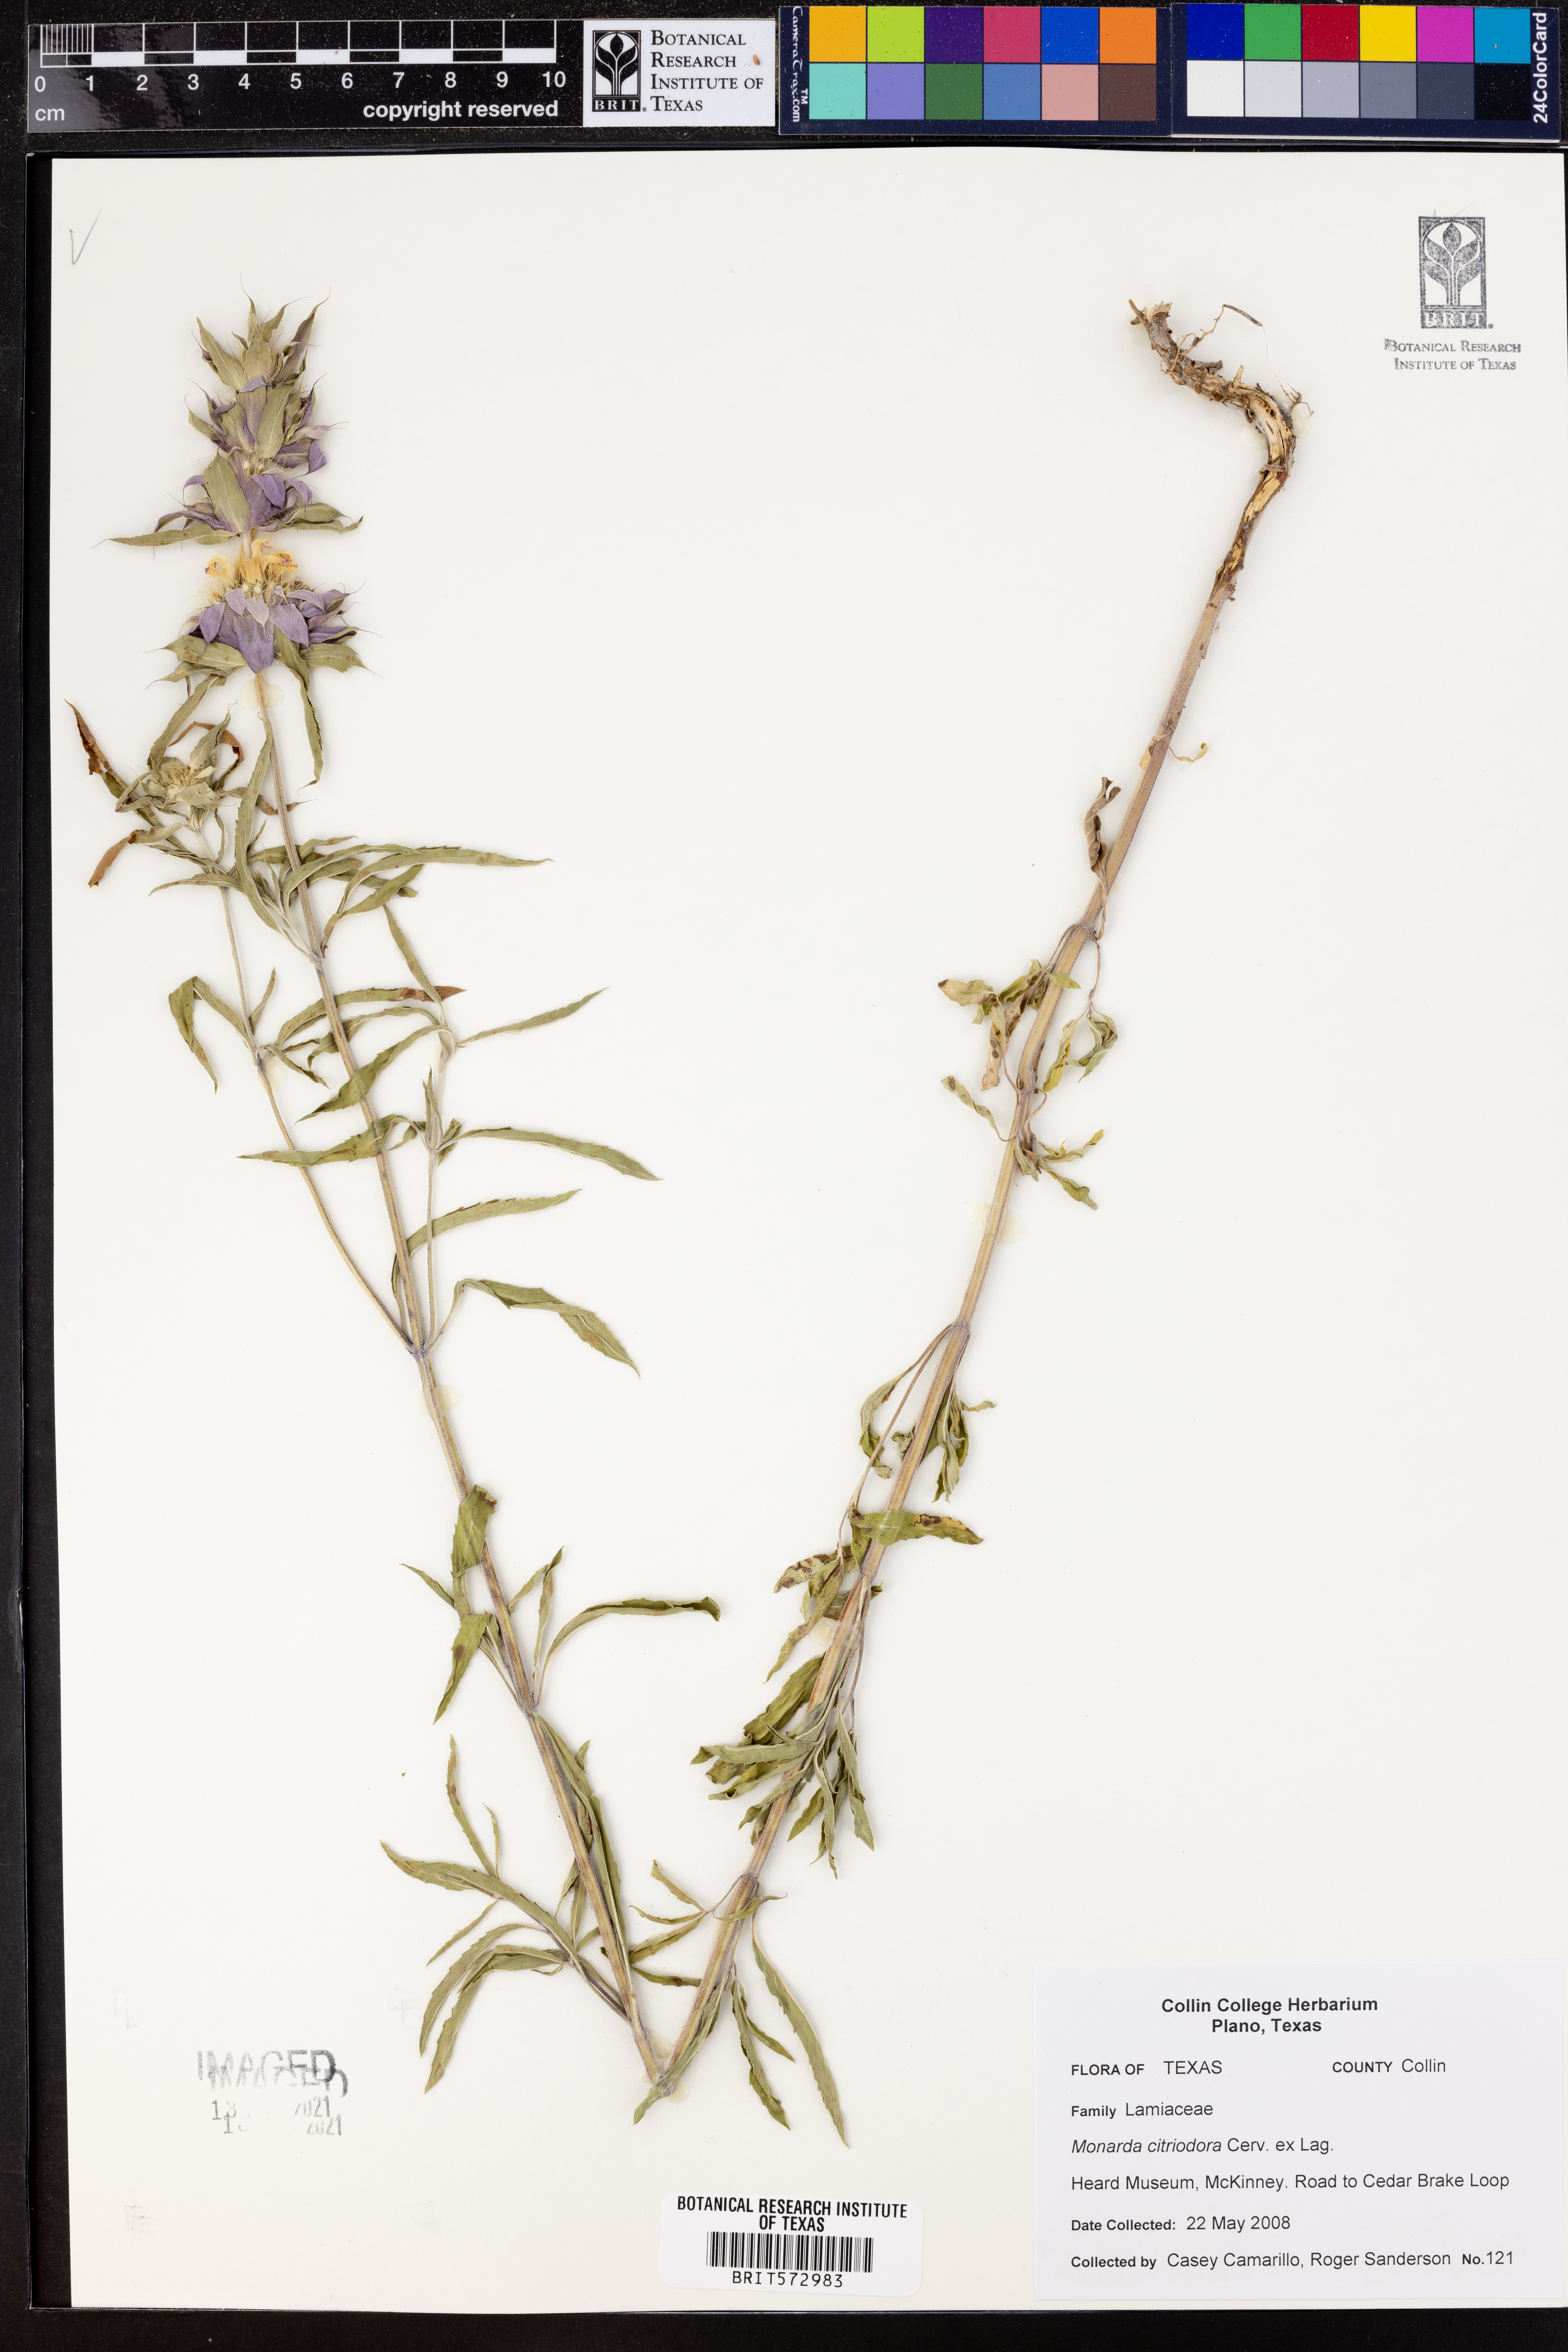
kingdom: Plantae
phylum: Tracheophyta
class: Magnoliopsida
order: Lamiales
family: Lamiaceae
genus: Monarda
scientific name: Monarda citriodora
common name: Lemon beebalm
